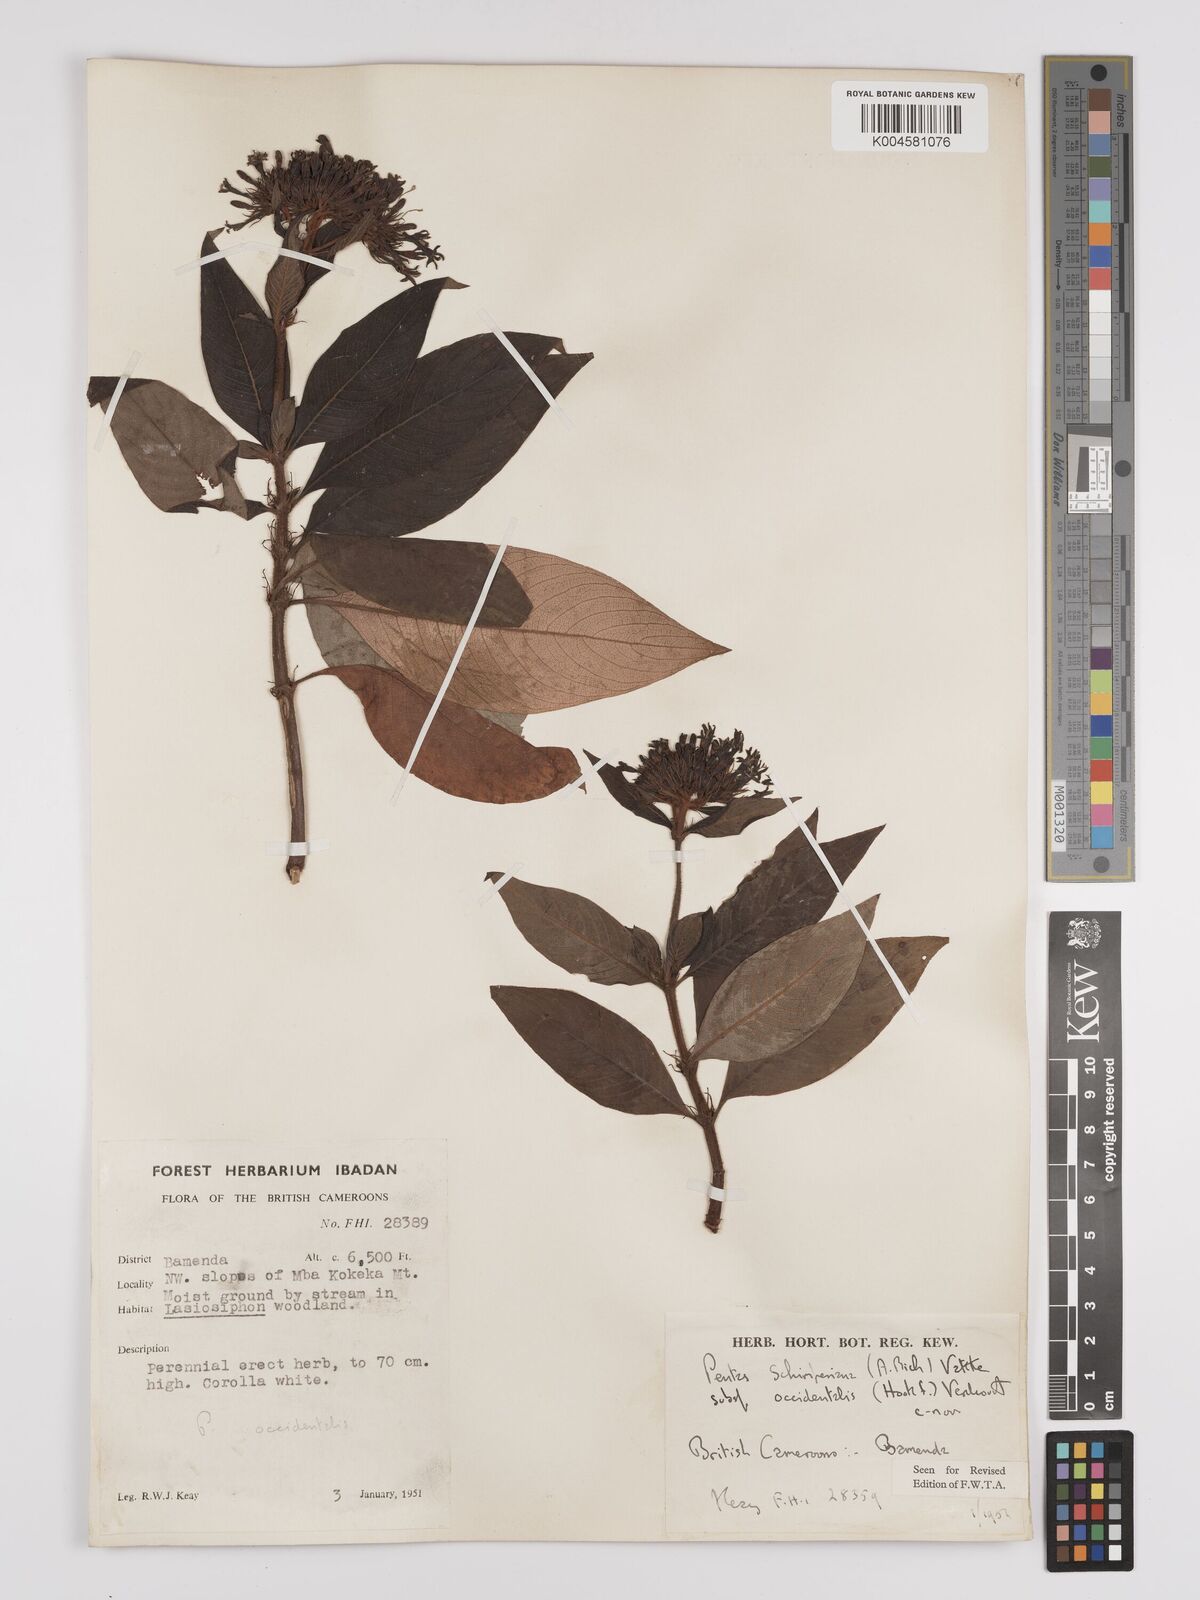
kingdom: Plantae
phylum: Tracheophyta
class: Magnoliopsida
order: Gentianales
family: Rubiaceae
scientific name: Rubiaceae
